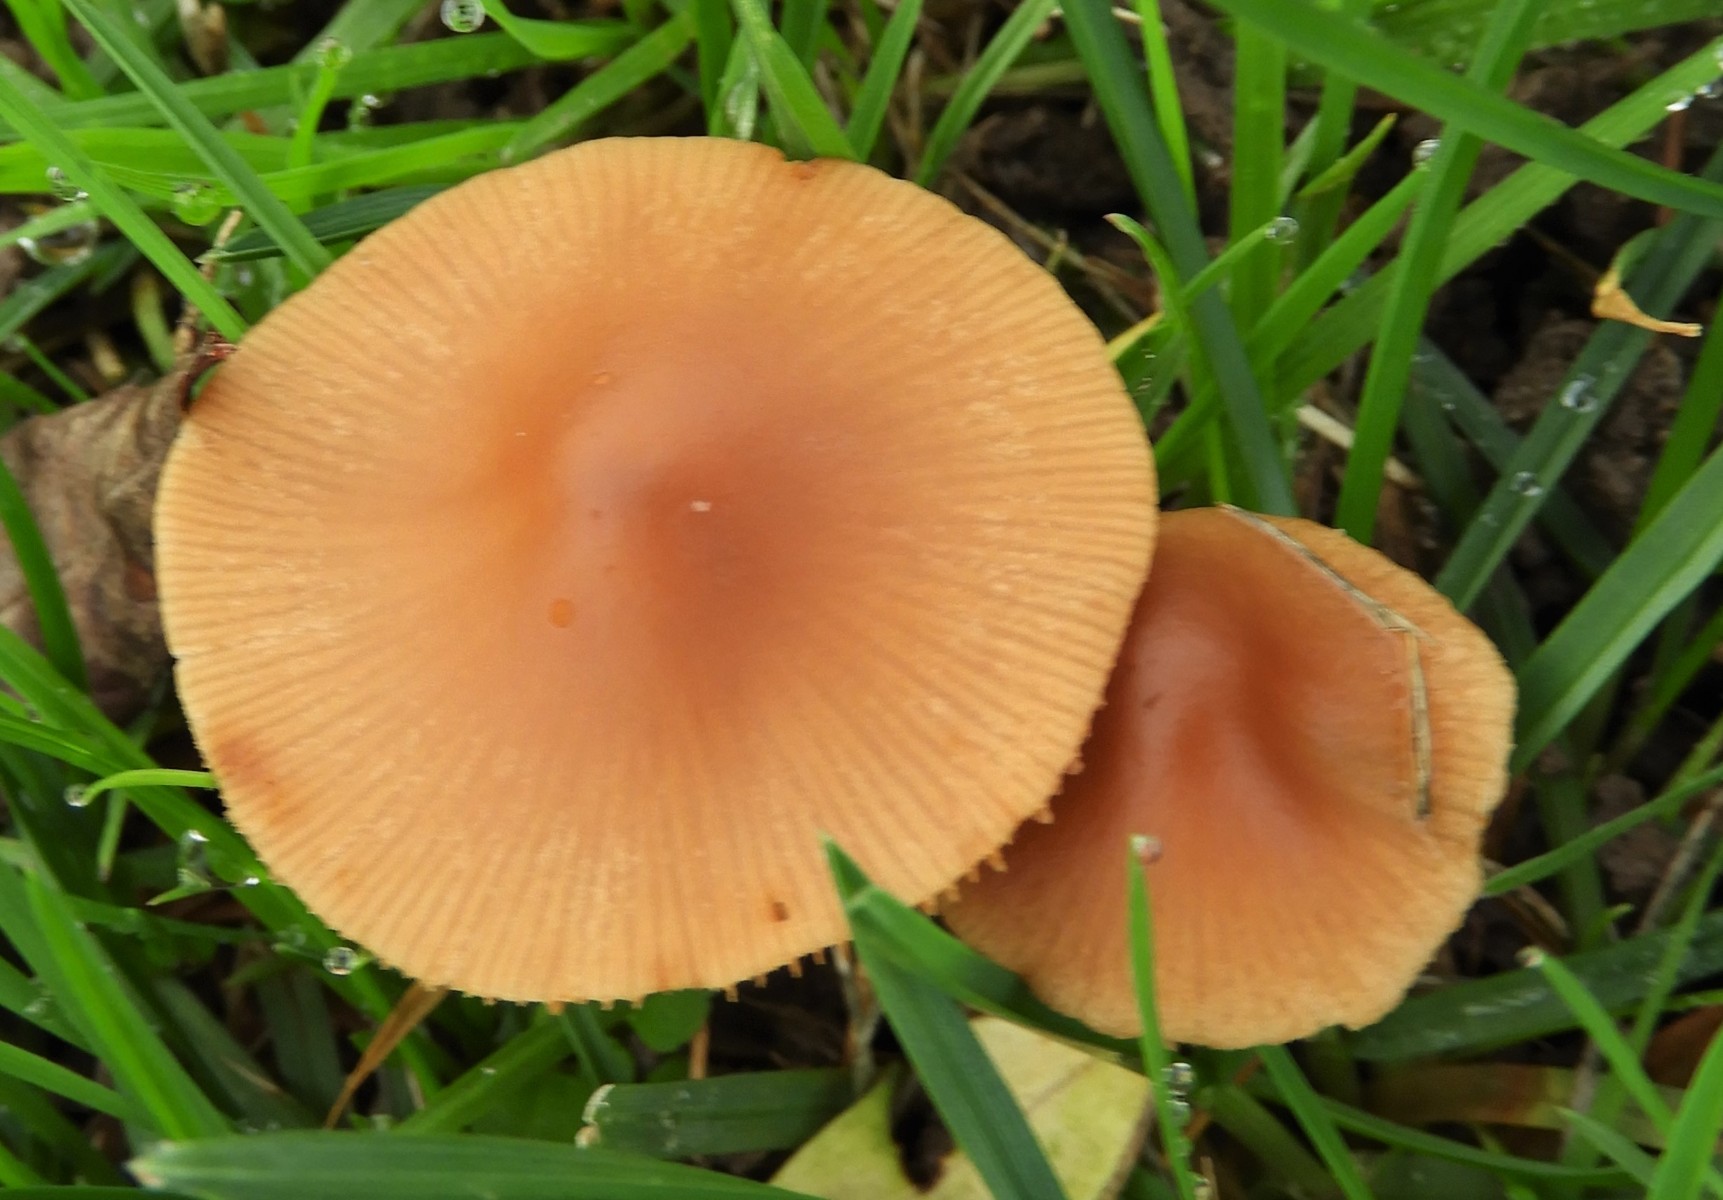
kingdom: Fungi
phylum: Basidiomycota
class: Agaricomycetes
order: Agaricales
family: Tubariaceae
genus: Tubaria
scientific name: Tubaria furfuracea
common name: kliddet fnughat
